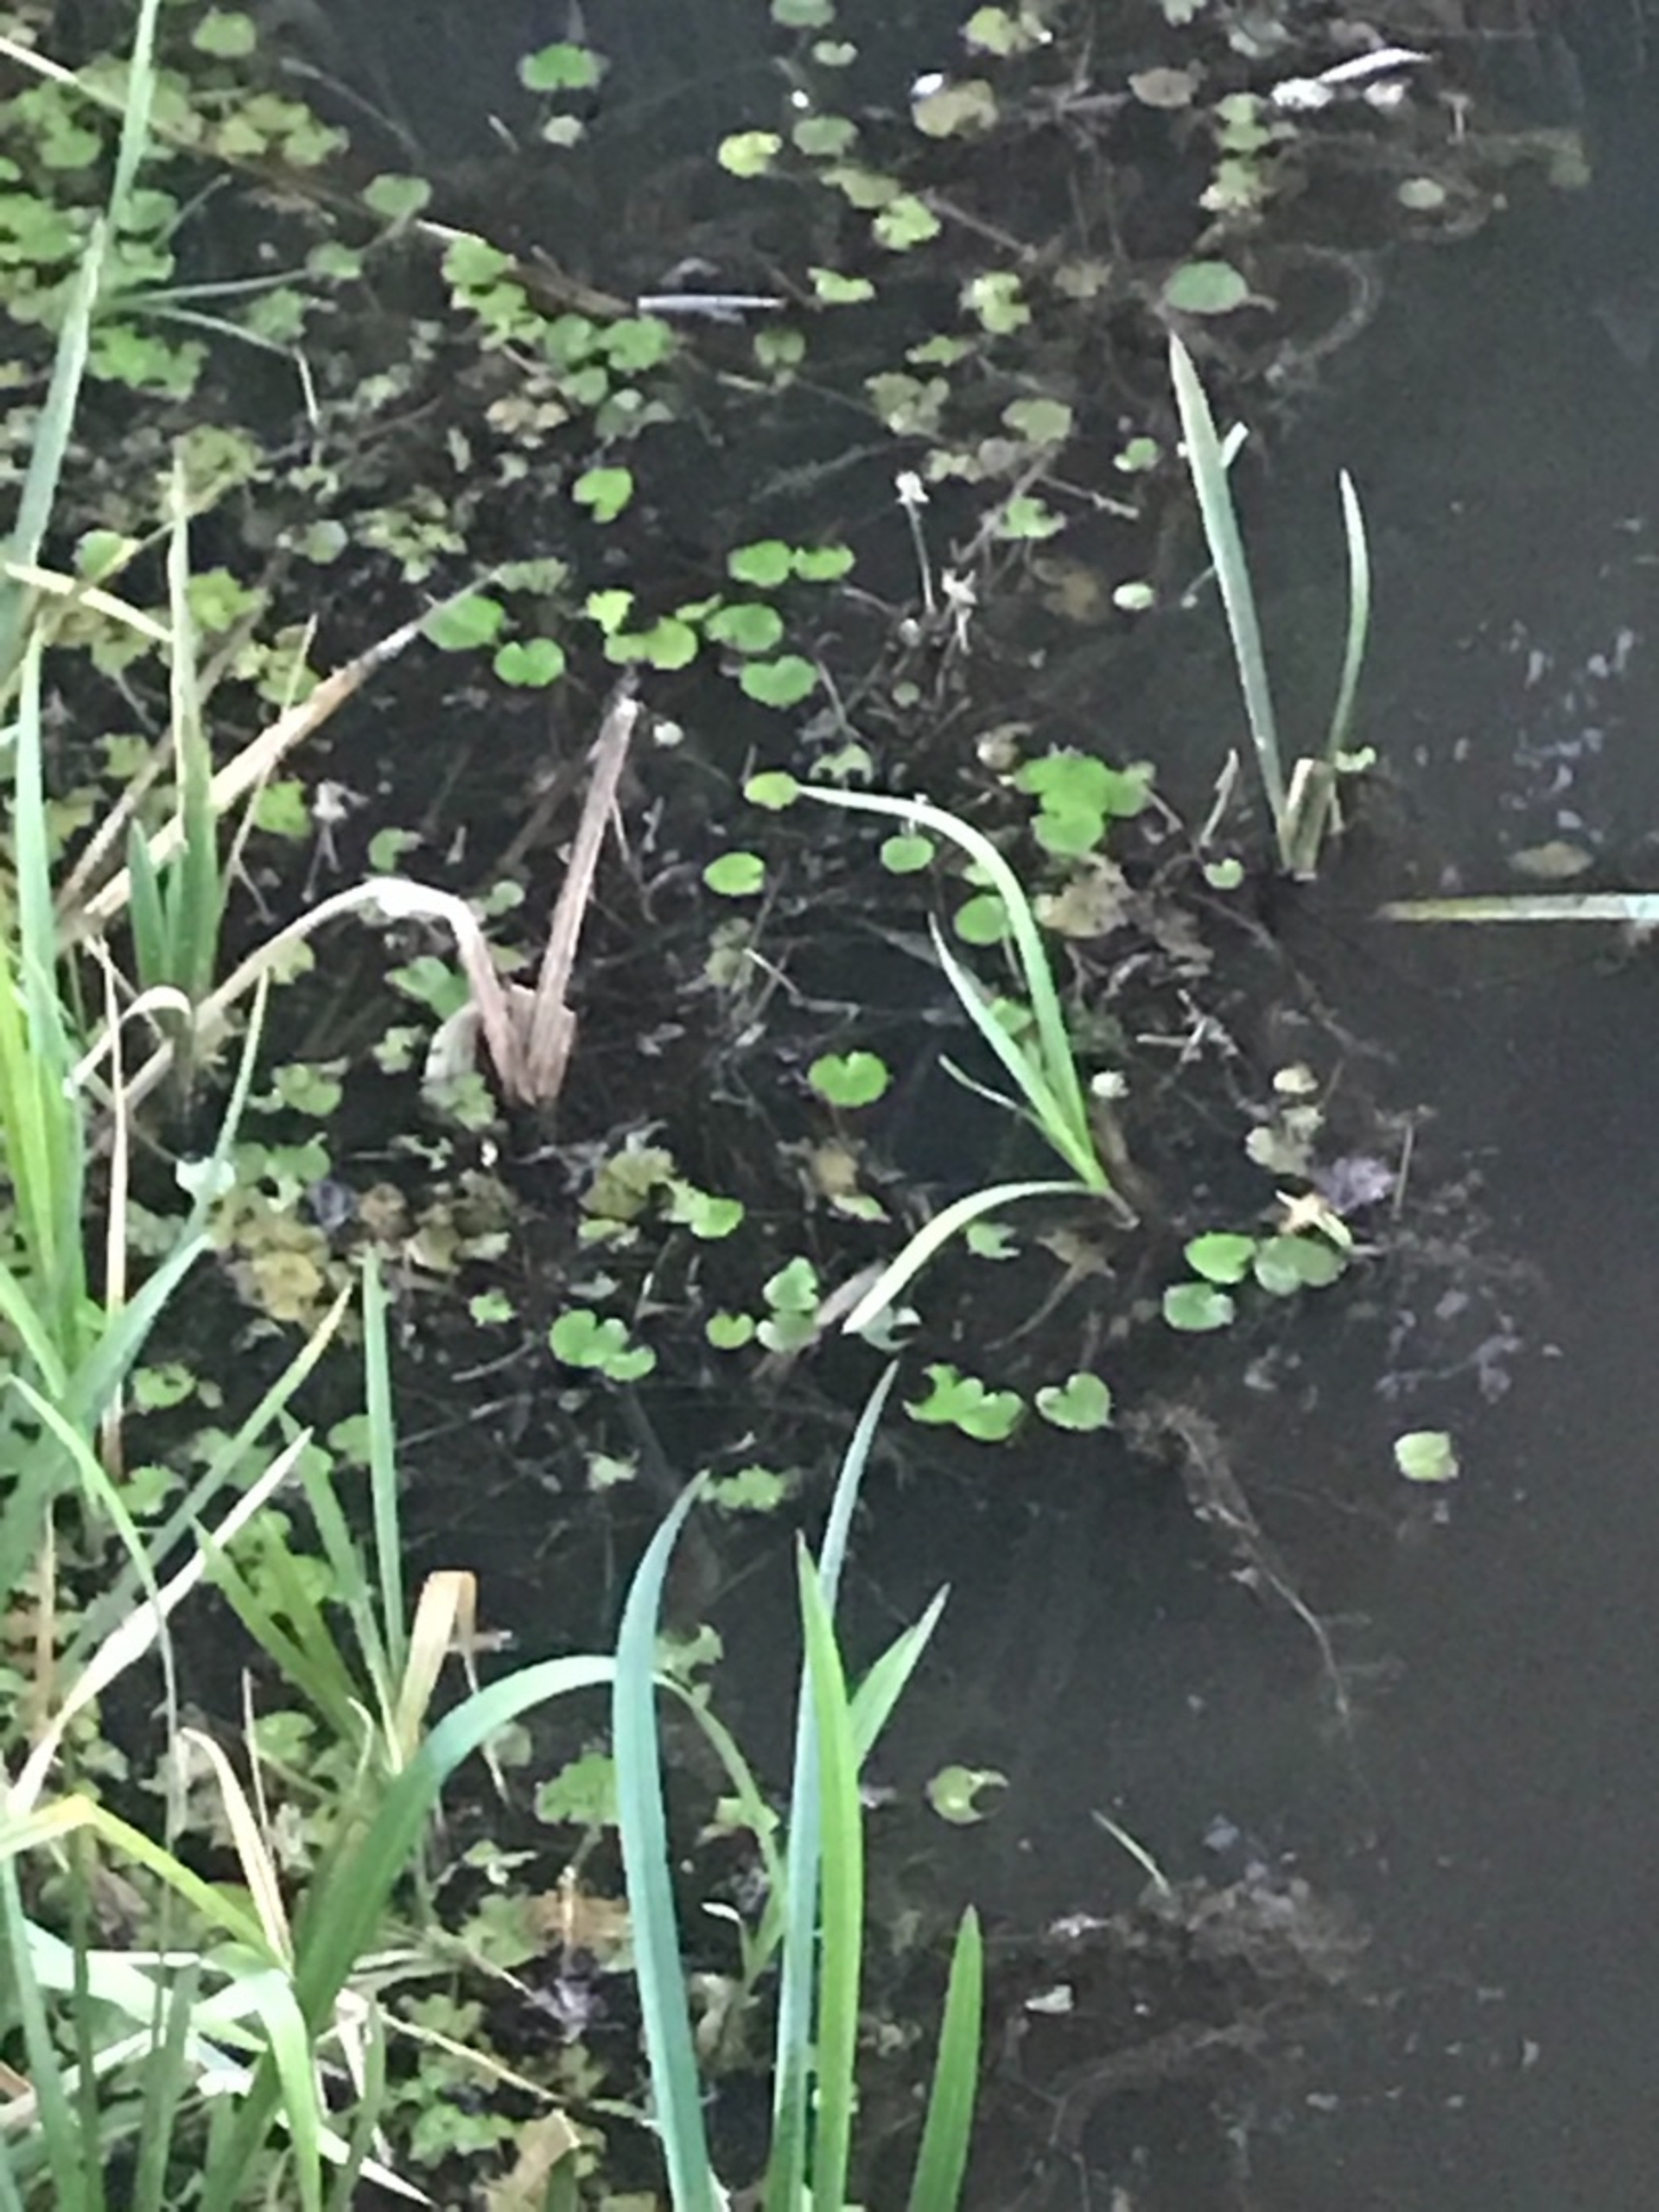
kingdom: Plantae
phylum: Tracheophyta
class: Magnoliopsida
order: Asterales
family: Menyanthaceae
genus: Nymphoides
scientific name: Nymphoides peltata
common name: Søblad
